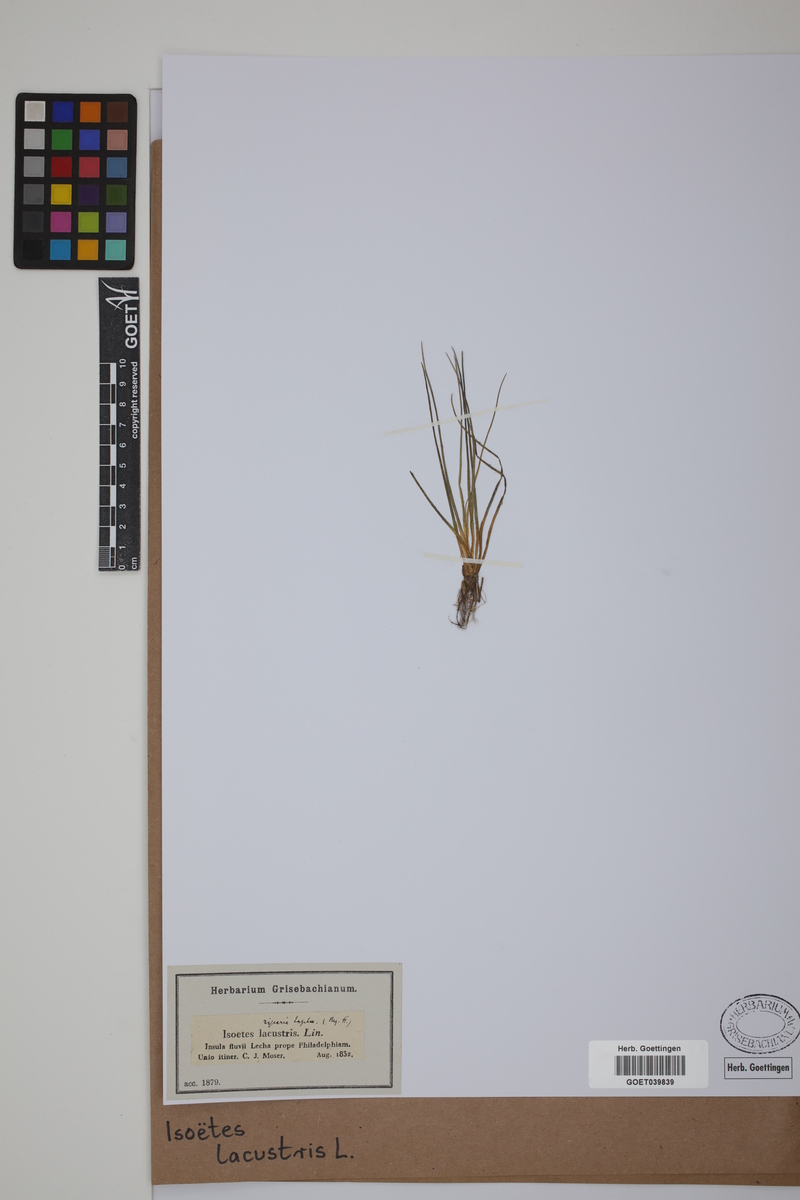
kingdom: Plantae
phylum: Tracheophyta
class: Lycopodiopsida
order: Isoetales
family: Isoetaceae
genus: Isoetes
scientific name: Isoetes lacustris
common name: Common quillwort
